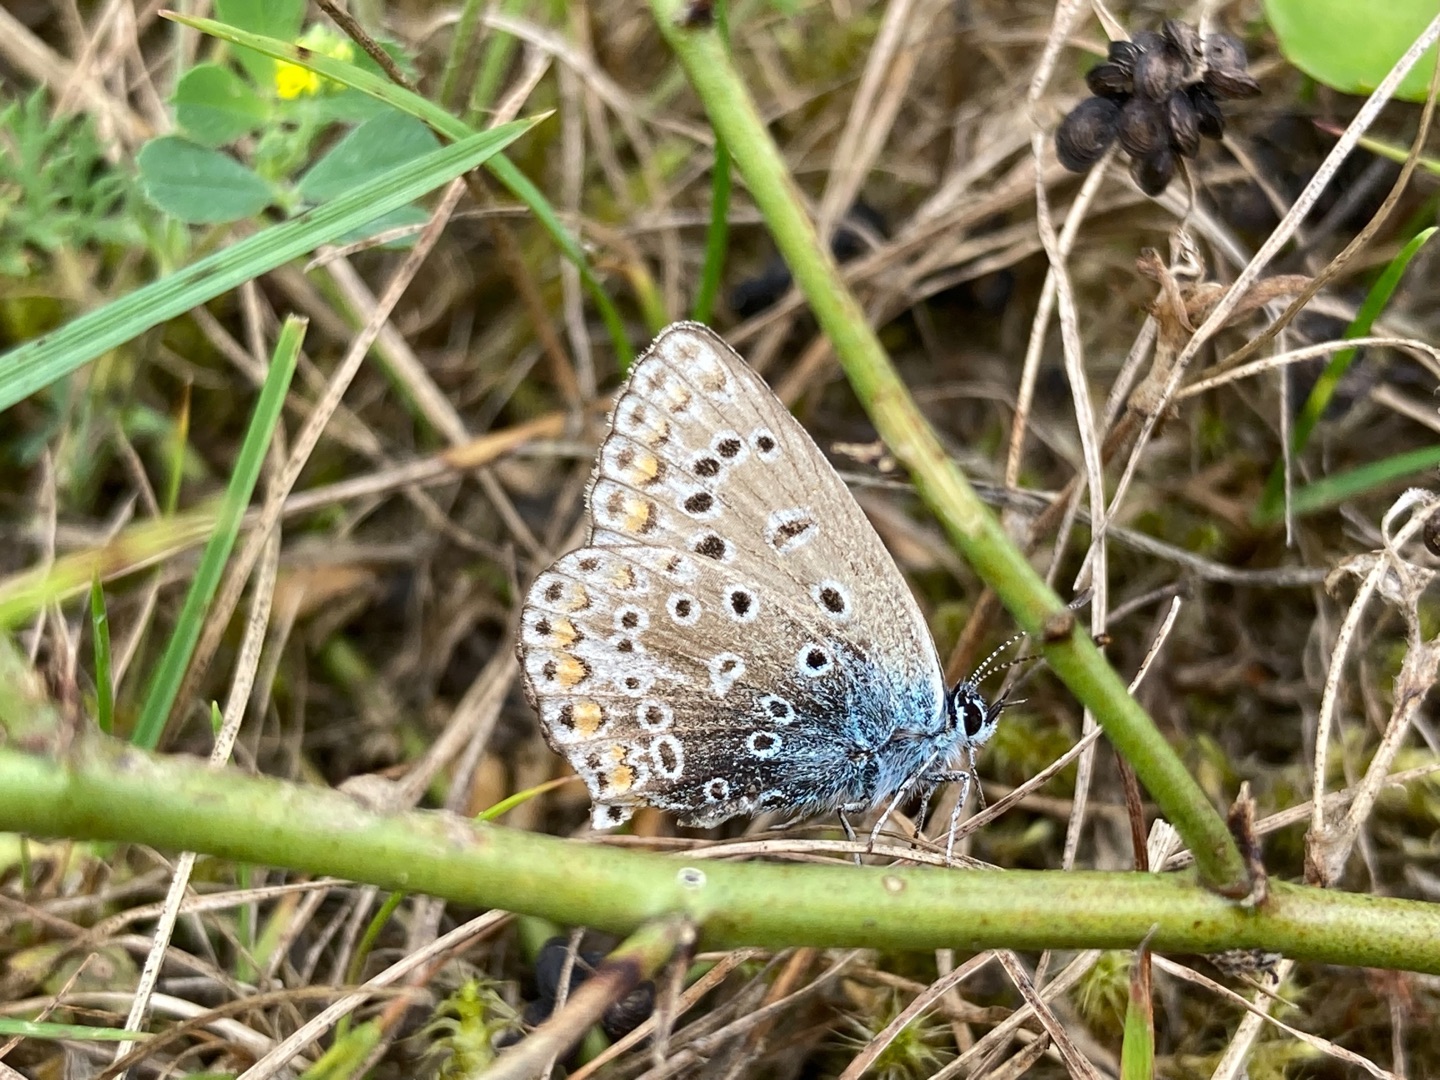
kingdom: Animalia
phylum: Arthropoda
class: Insecta
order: Lepidoptera
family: Lycaenidae
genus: Polyommatus
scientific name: Polyommatus icarus
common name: Almindelig blåfugl
